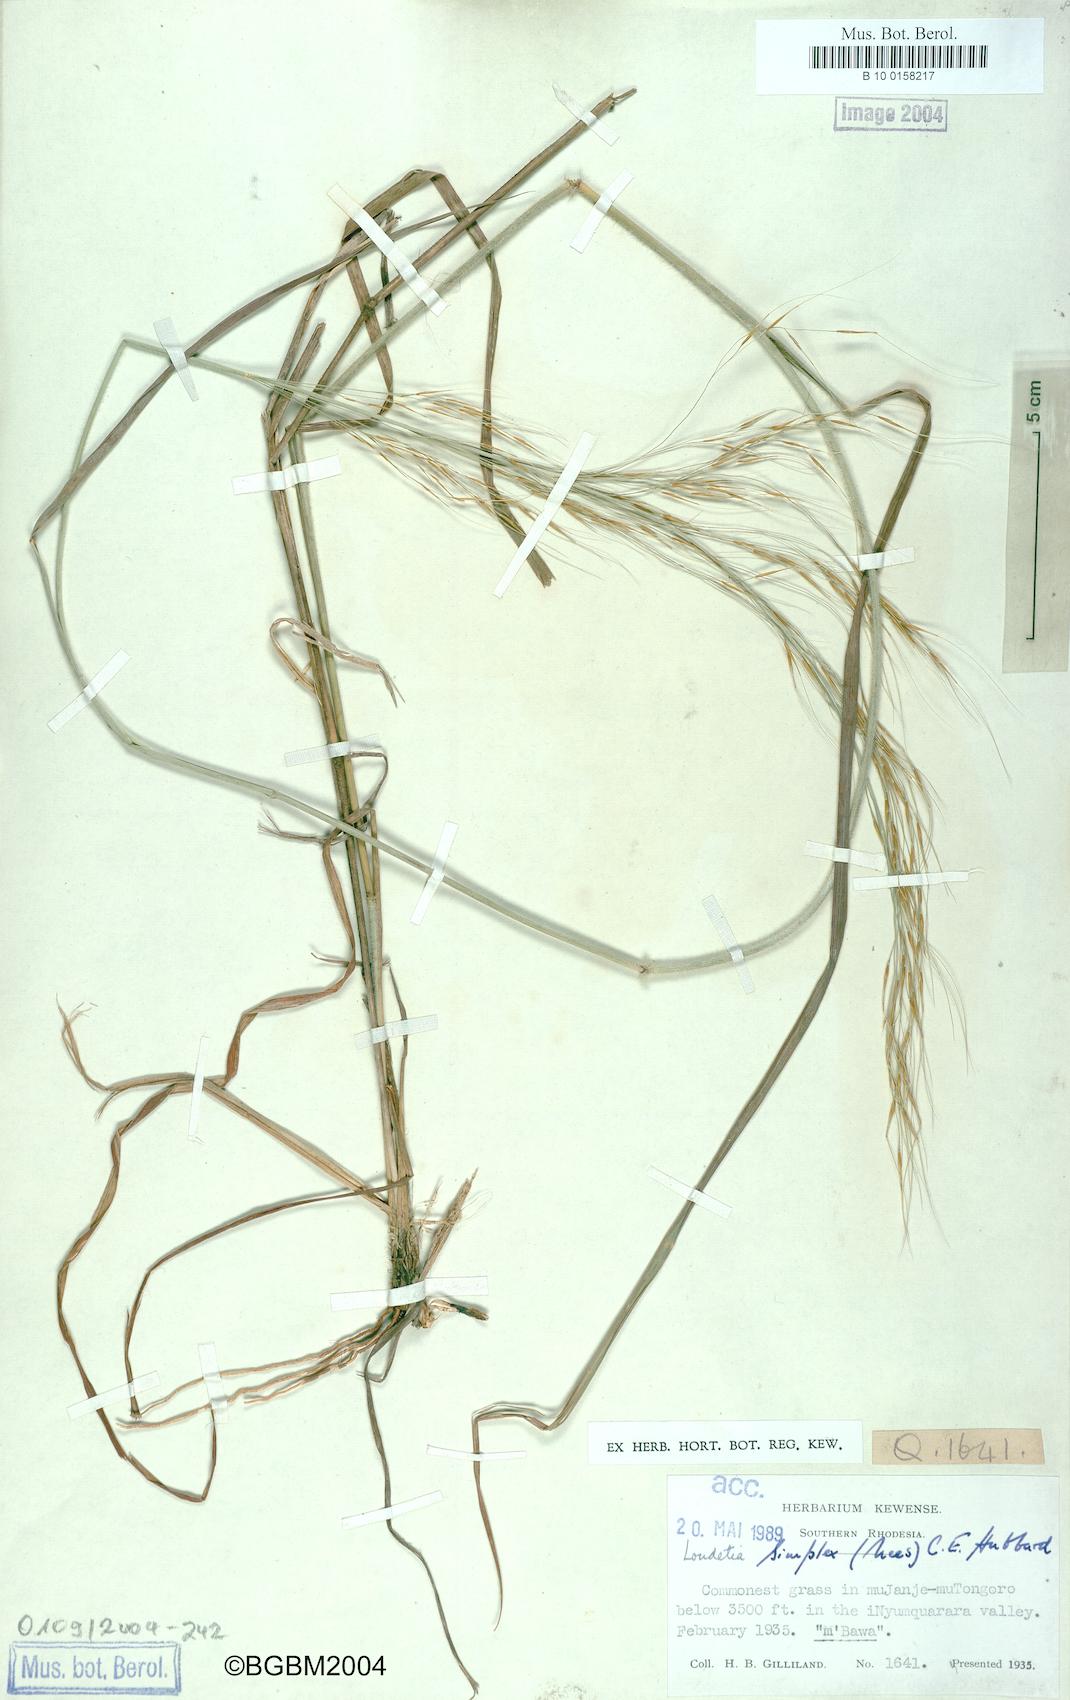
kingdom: Plantae
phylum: Tracheophyta
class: Liliopsida
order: Poales
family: Poaceae
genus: Loudetia
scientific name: Loudetia simplex
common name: Common russet grass
